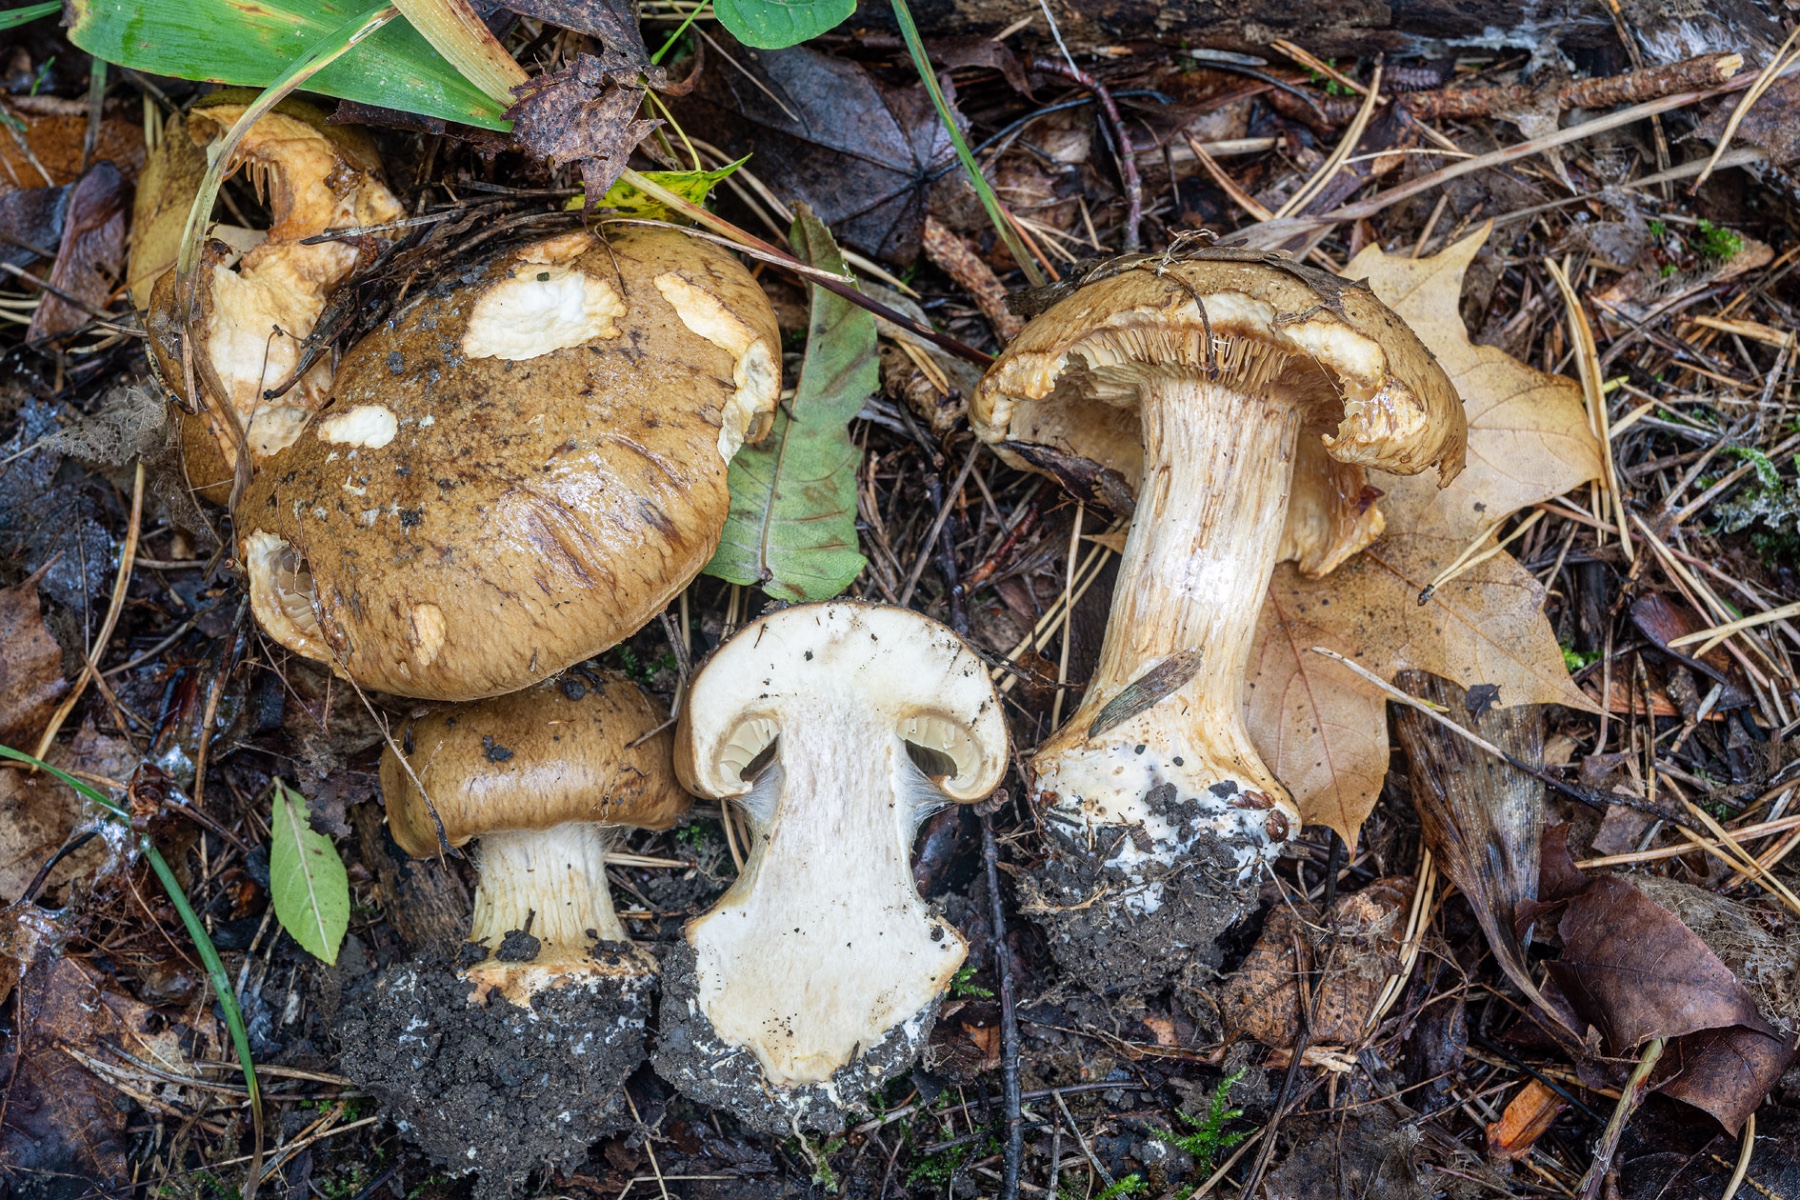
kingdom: Fungi
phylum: Basidiomycota
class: Agaricomycetes
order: Agaricales
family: Cortinariaceae
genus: Calonarius
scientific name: Calonarius elegantior
